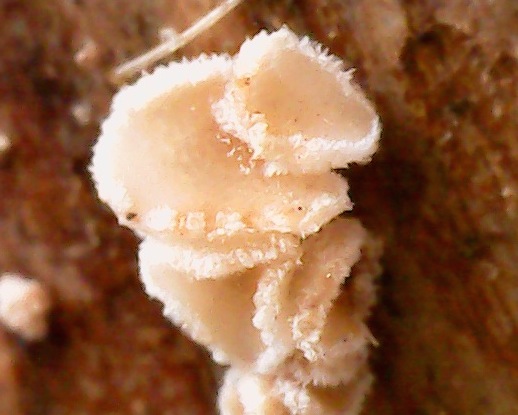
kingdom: Fungi
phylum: Ascomycota
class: Leotiomycetes
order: Helotiales
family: Lachnaceae
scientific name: Lachnaceae
